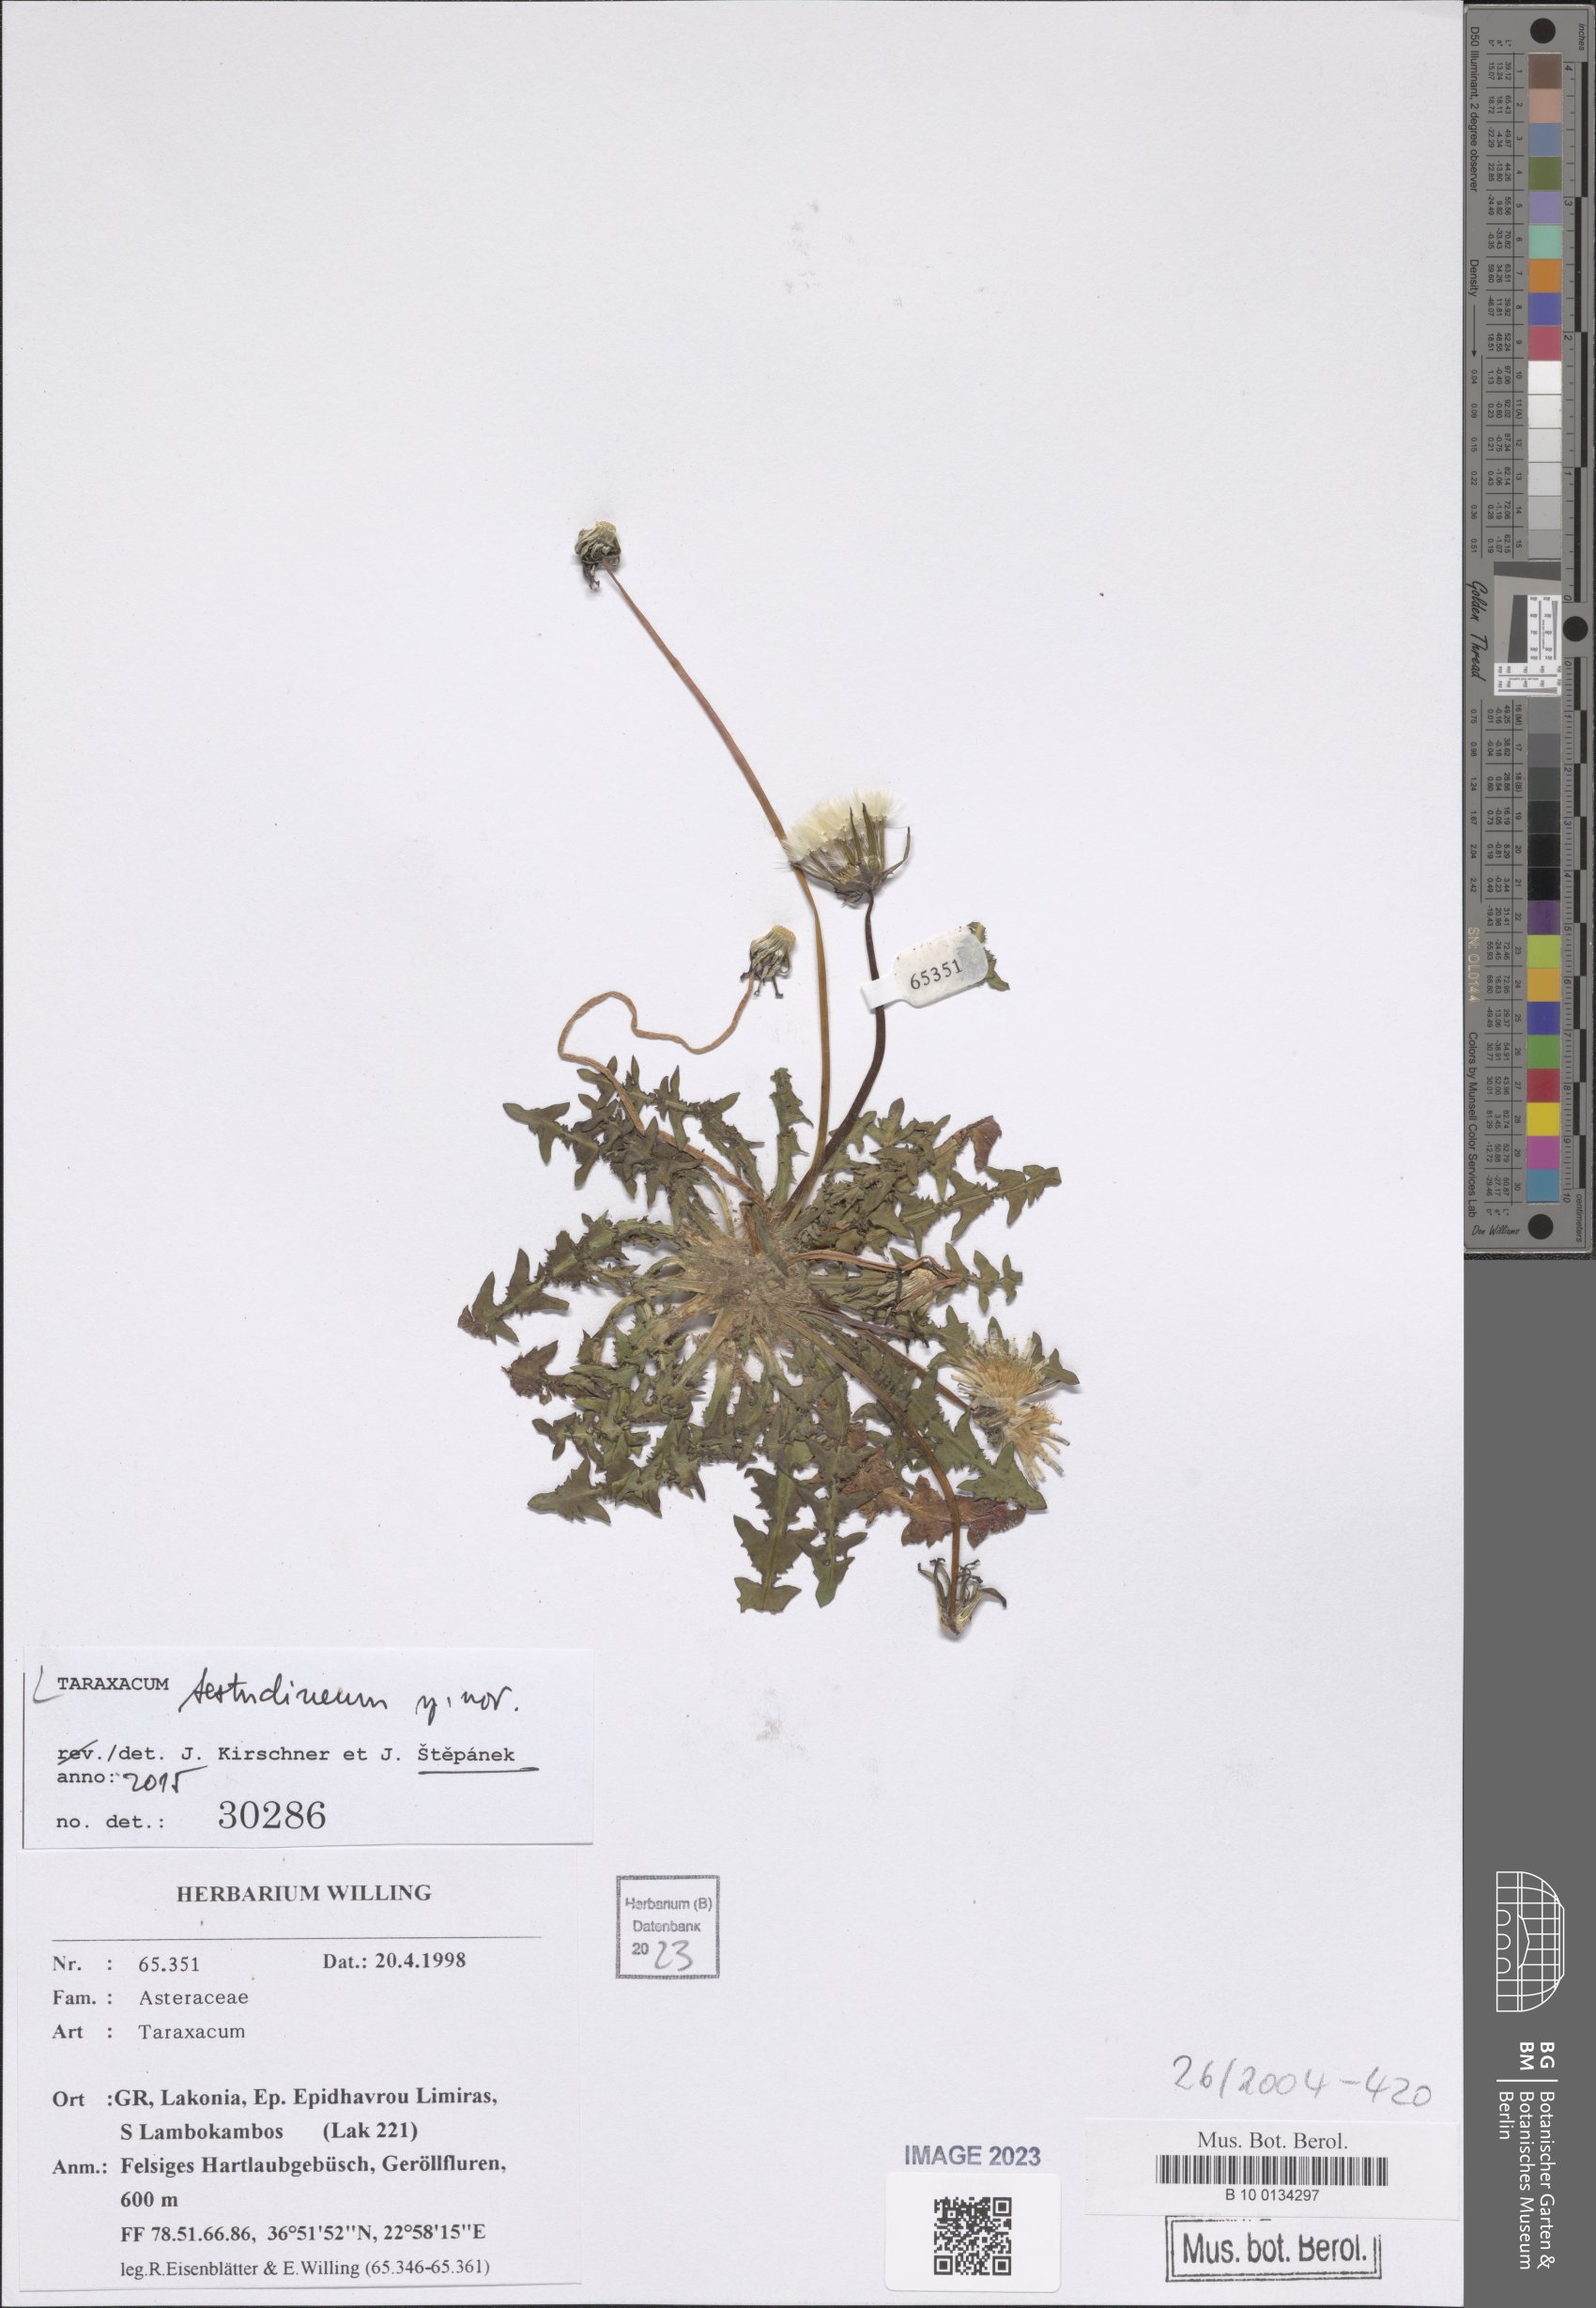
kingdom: Plantae
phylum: Tracheophyta
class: Magnoliopsida
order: Asterales
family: Asteraceae
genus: Taraxacum
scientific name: Taraxacum
